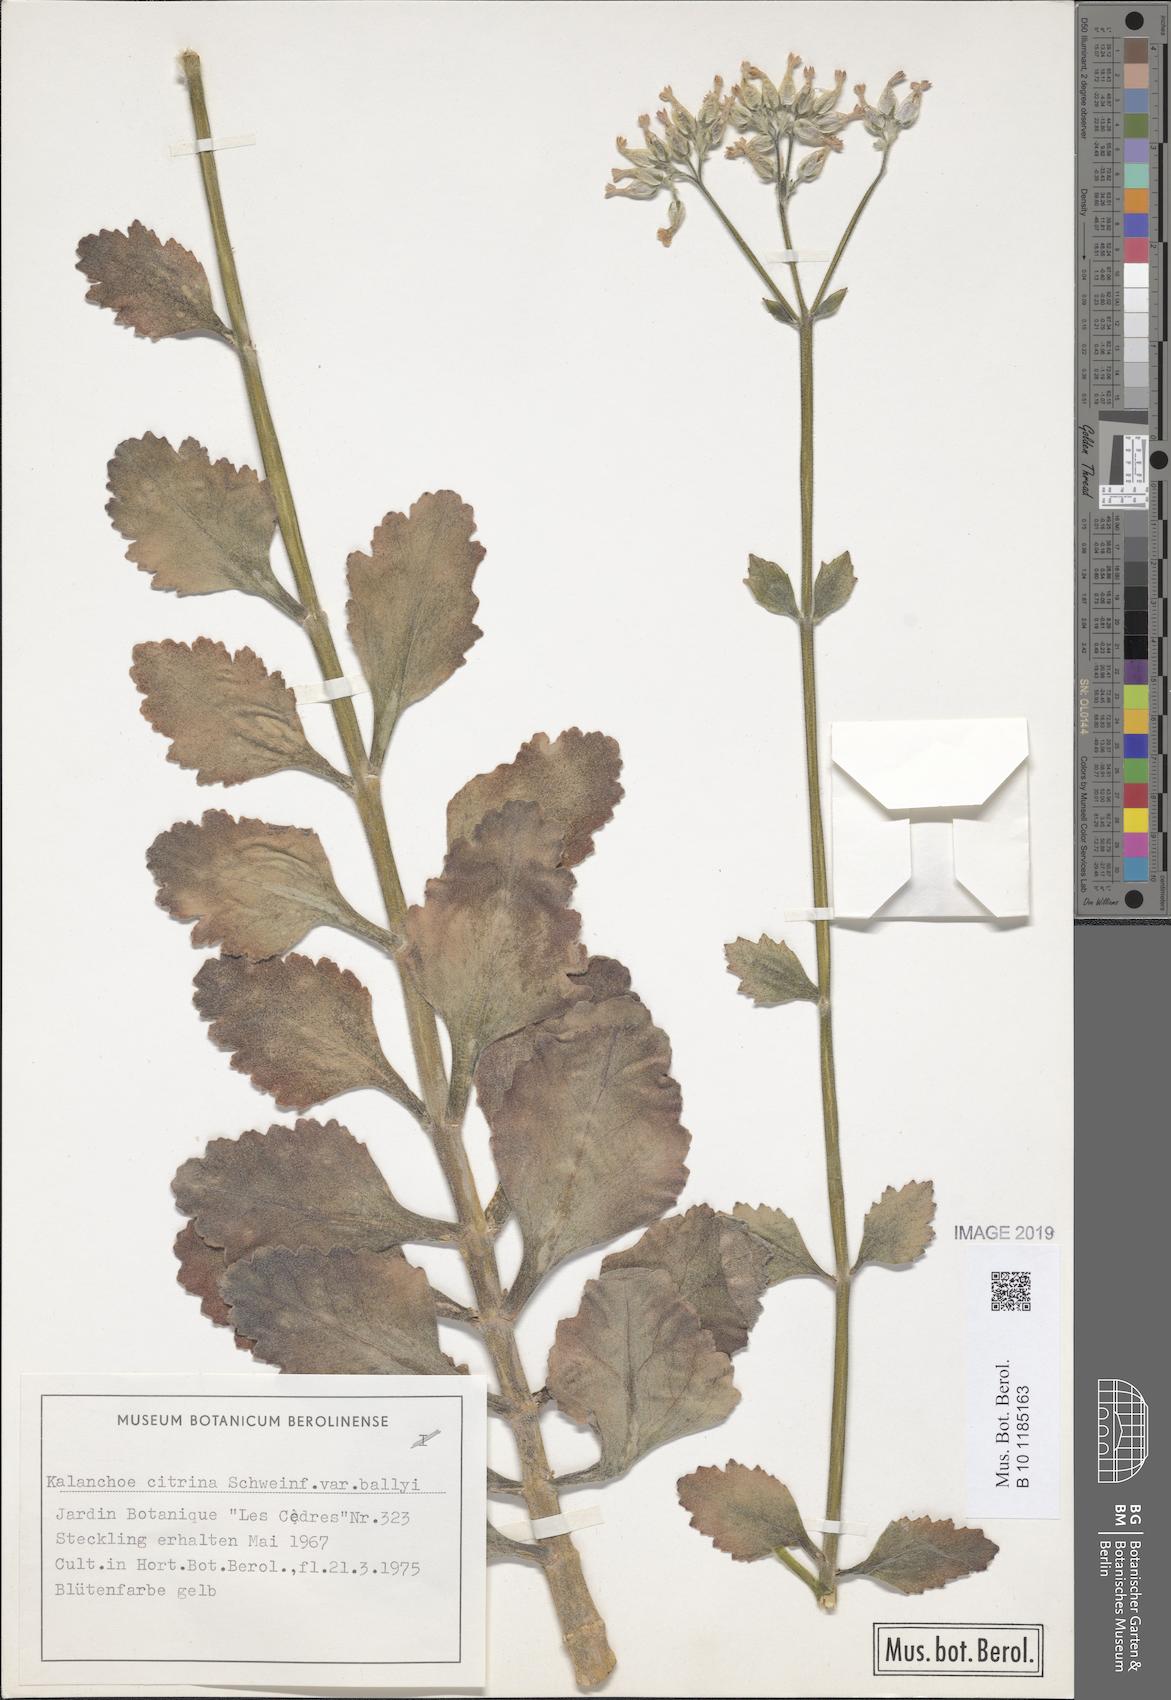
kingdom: Plantae
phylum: Tracheophyta
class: Magnoliopsida
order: Saxifragales
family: Crassulaceae
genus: Kalanchoe
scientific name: Kalanchoe citrina
